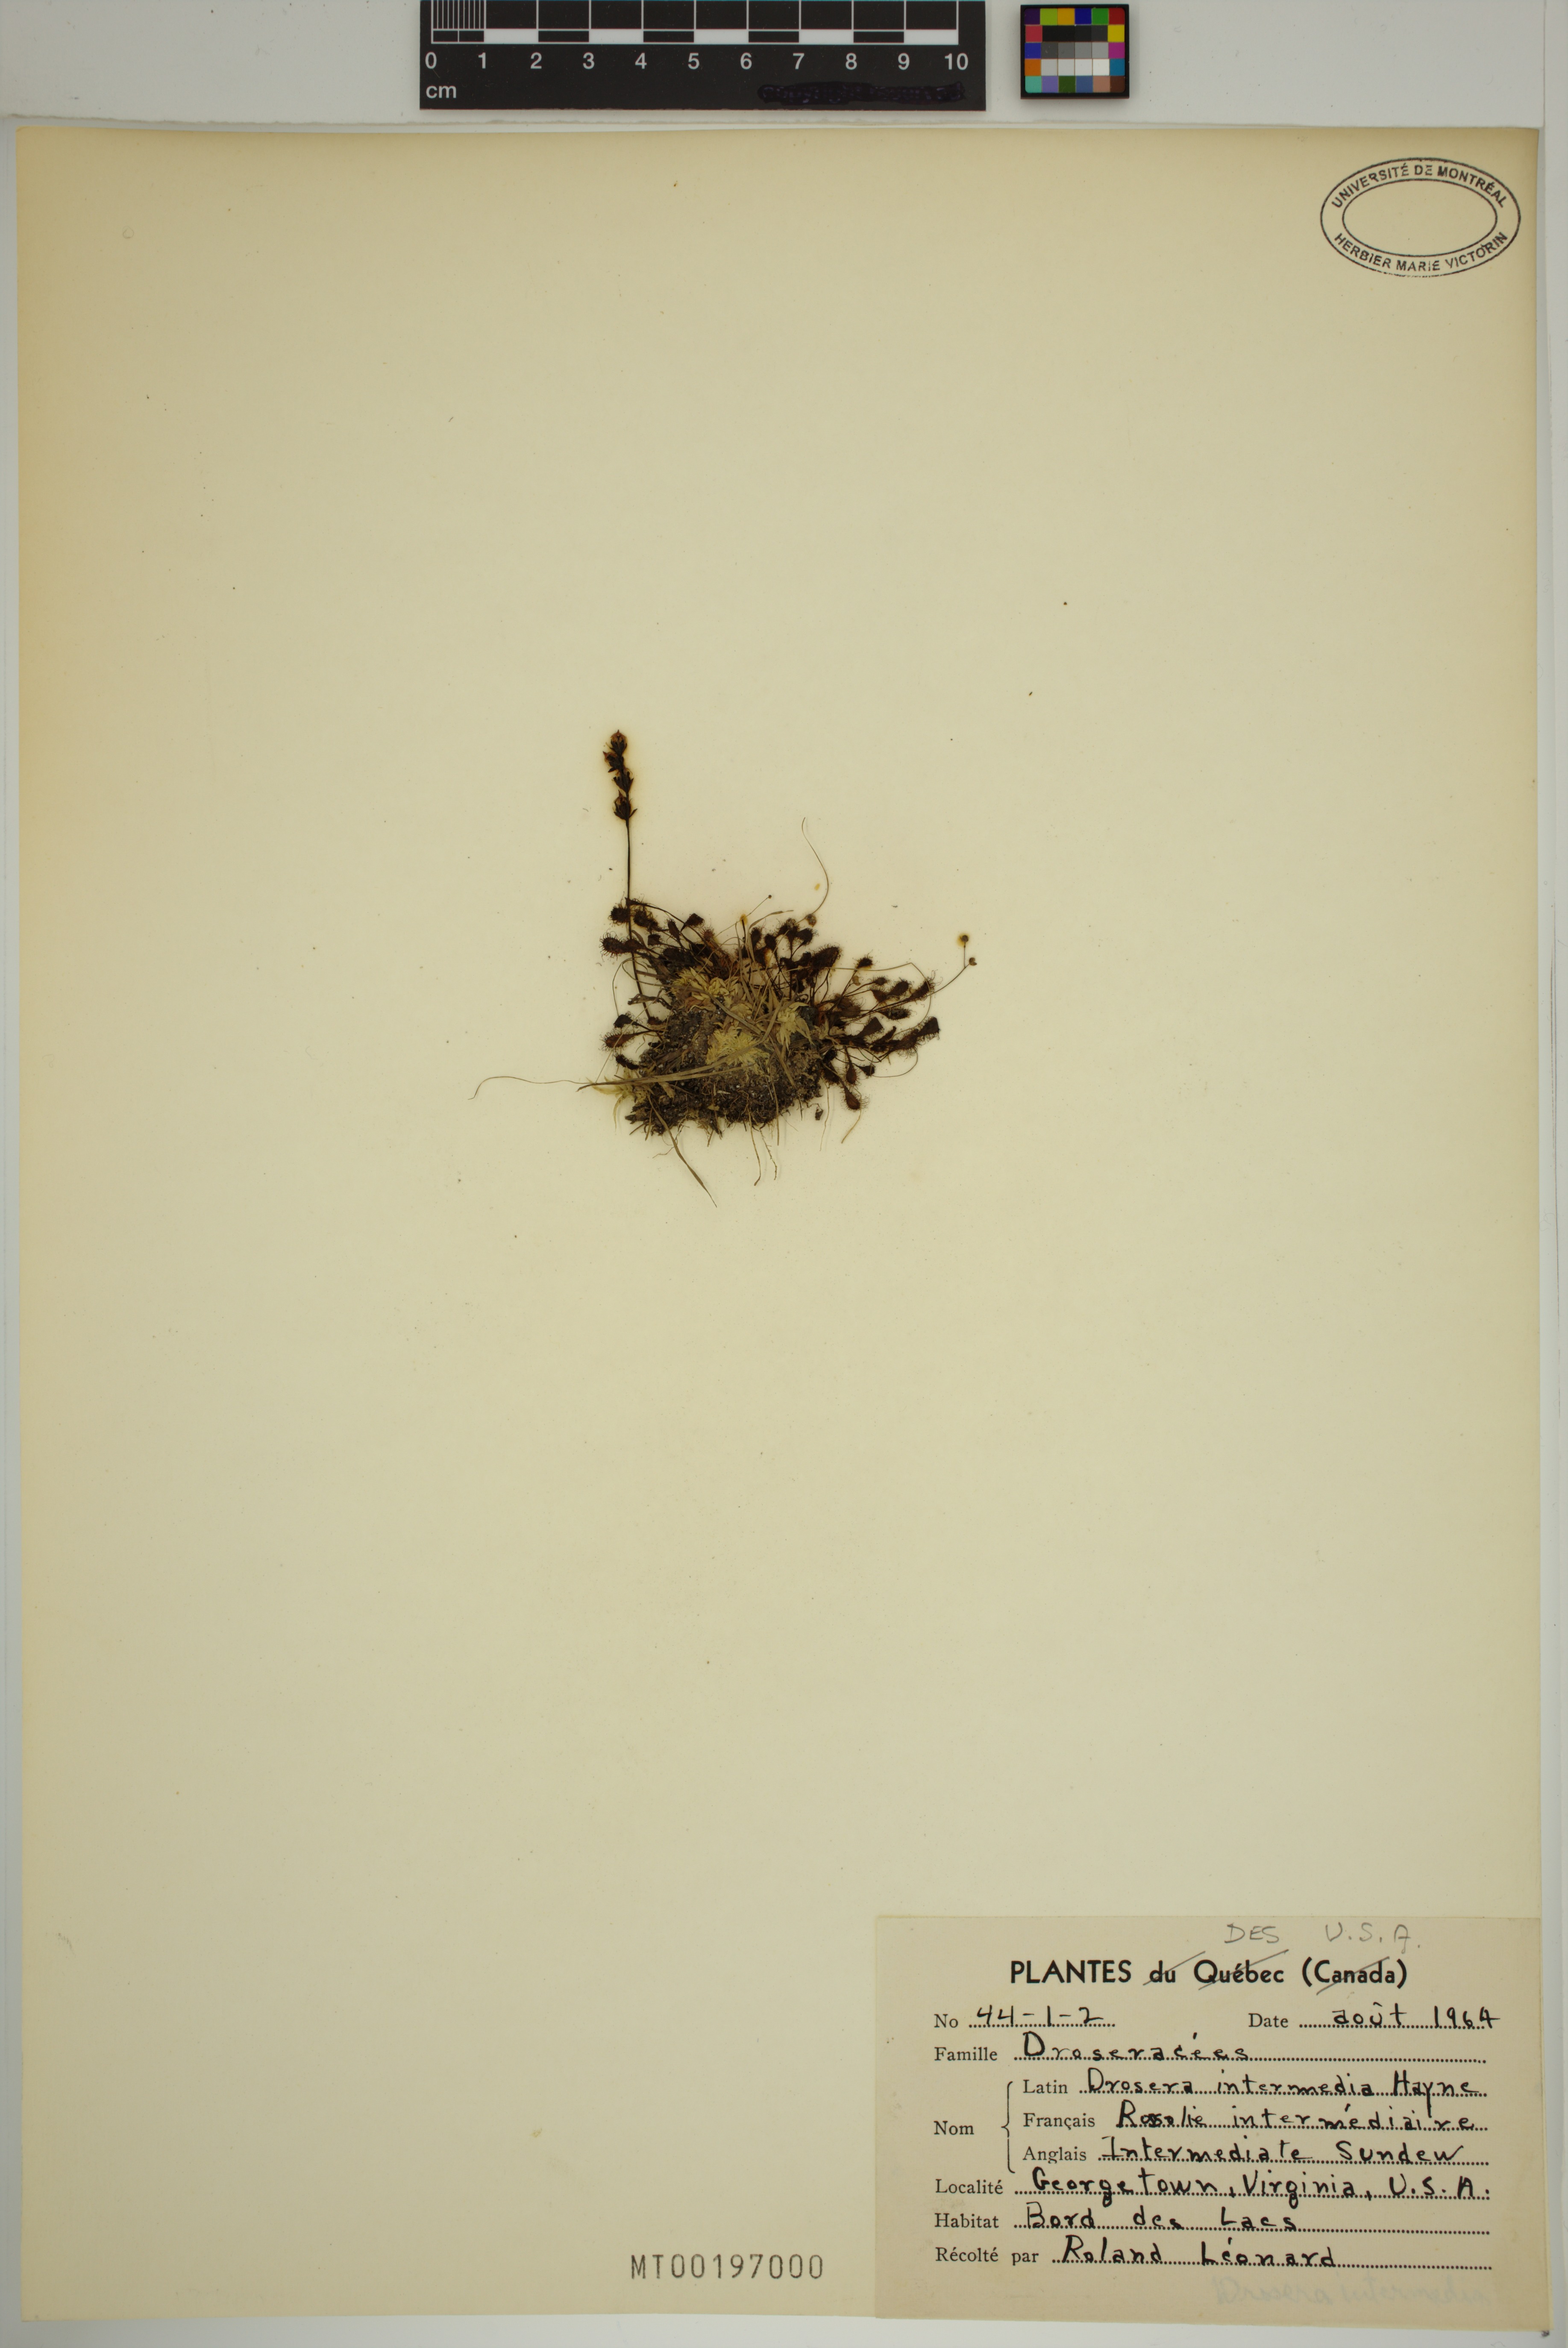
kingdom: Plantae
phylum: Tracheophyta
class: Magnoliopsida
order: Caryophyllales
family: Droseraceae
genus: Drosera
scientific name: Drosera intermedia
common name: Oblong-leaved sundew
